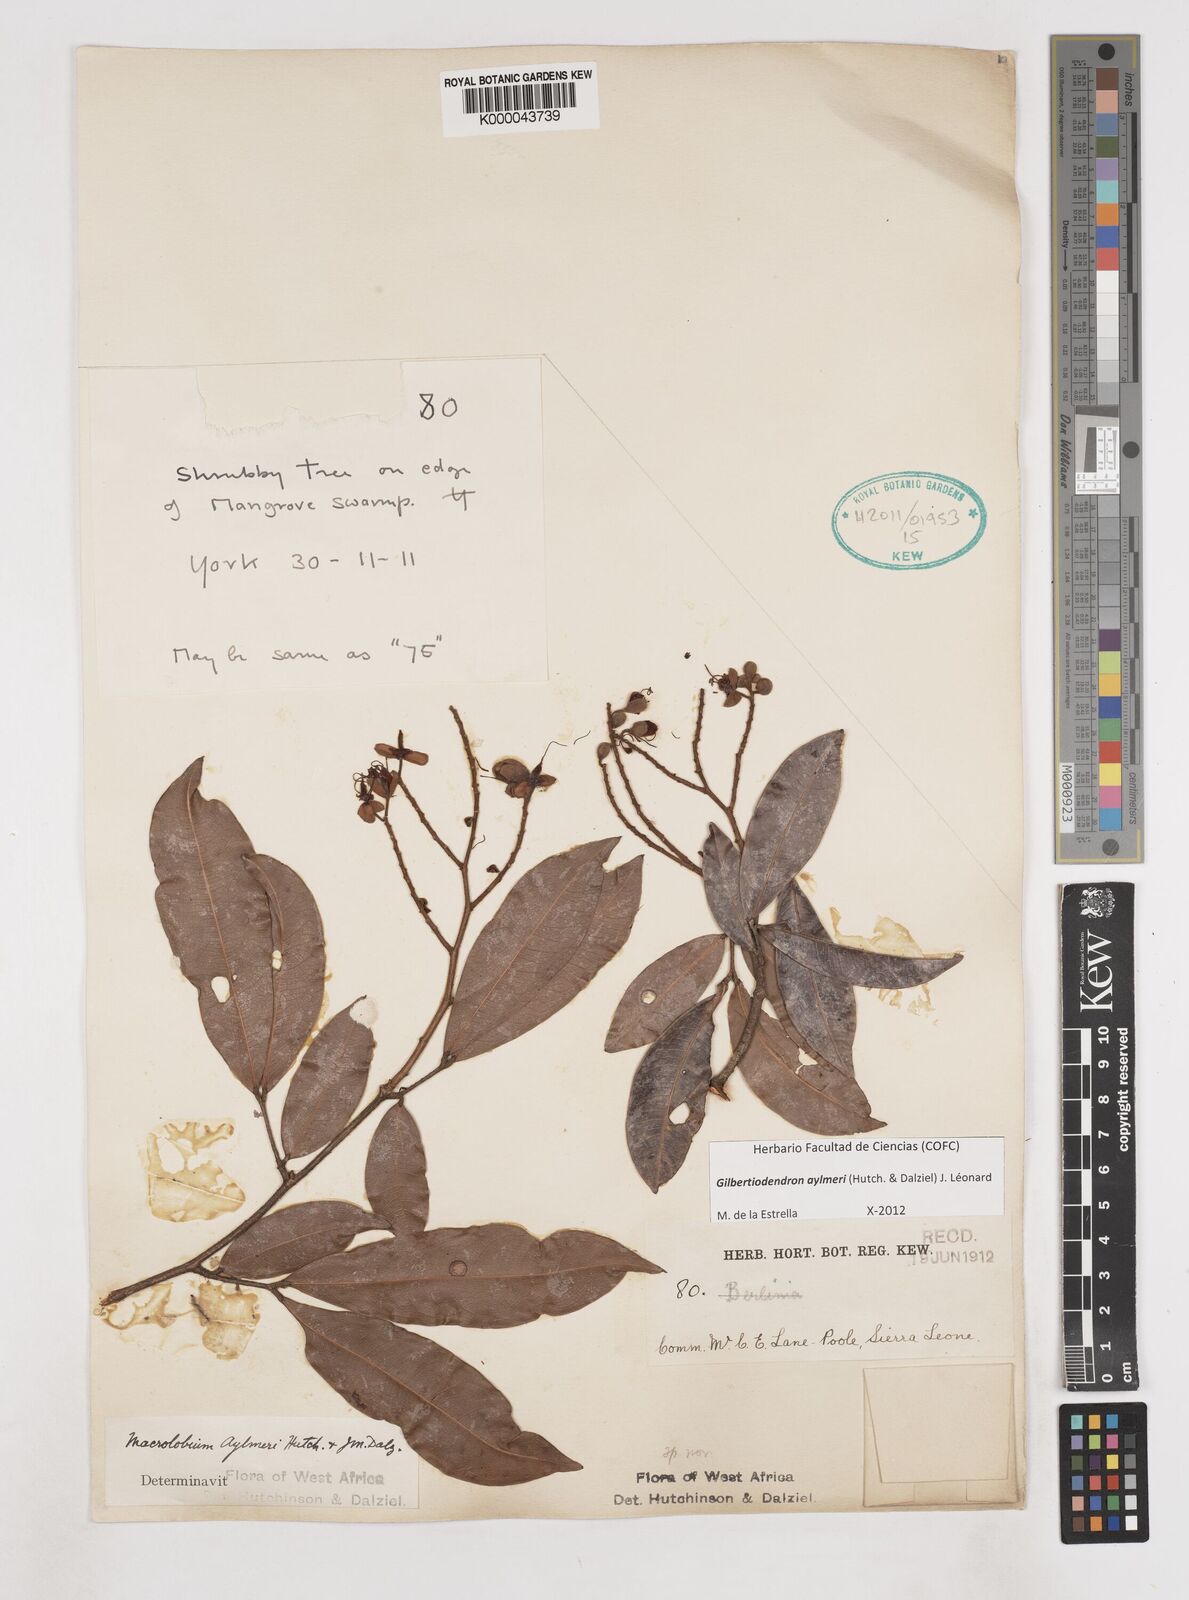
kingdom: Plantae
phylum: Tracheophyta
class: Magnoliopsida
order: Fabales
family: Fabaceae
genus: Gilbertiodendron
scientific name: Gilbertiodendron
